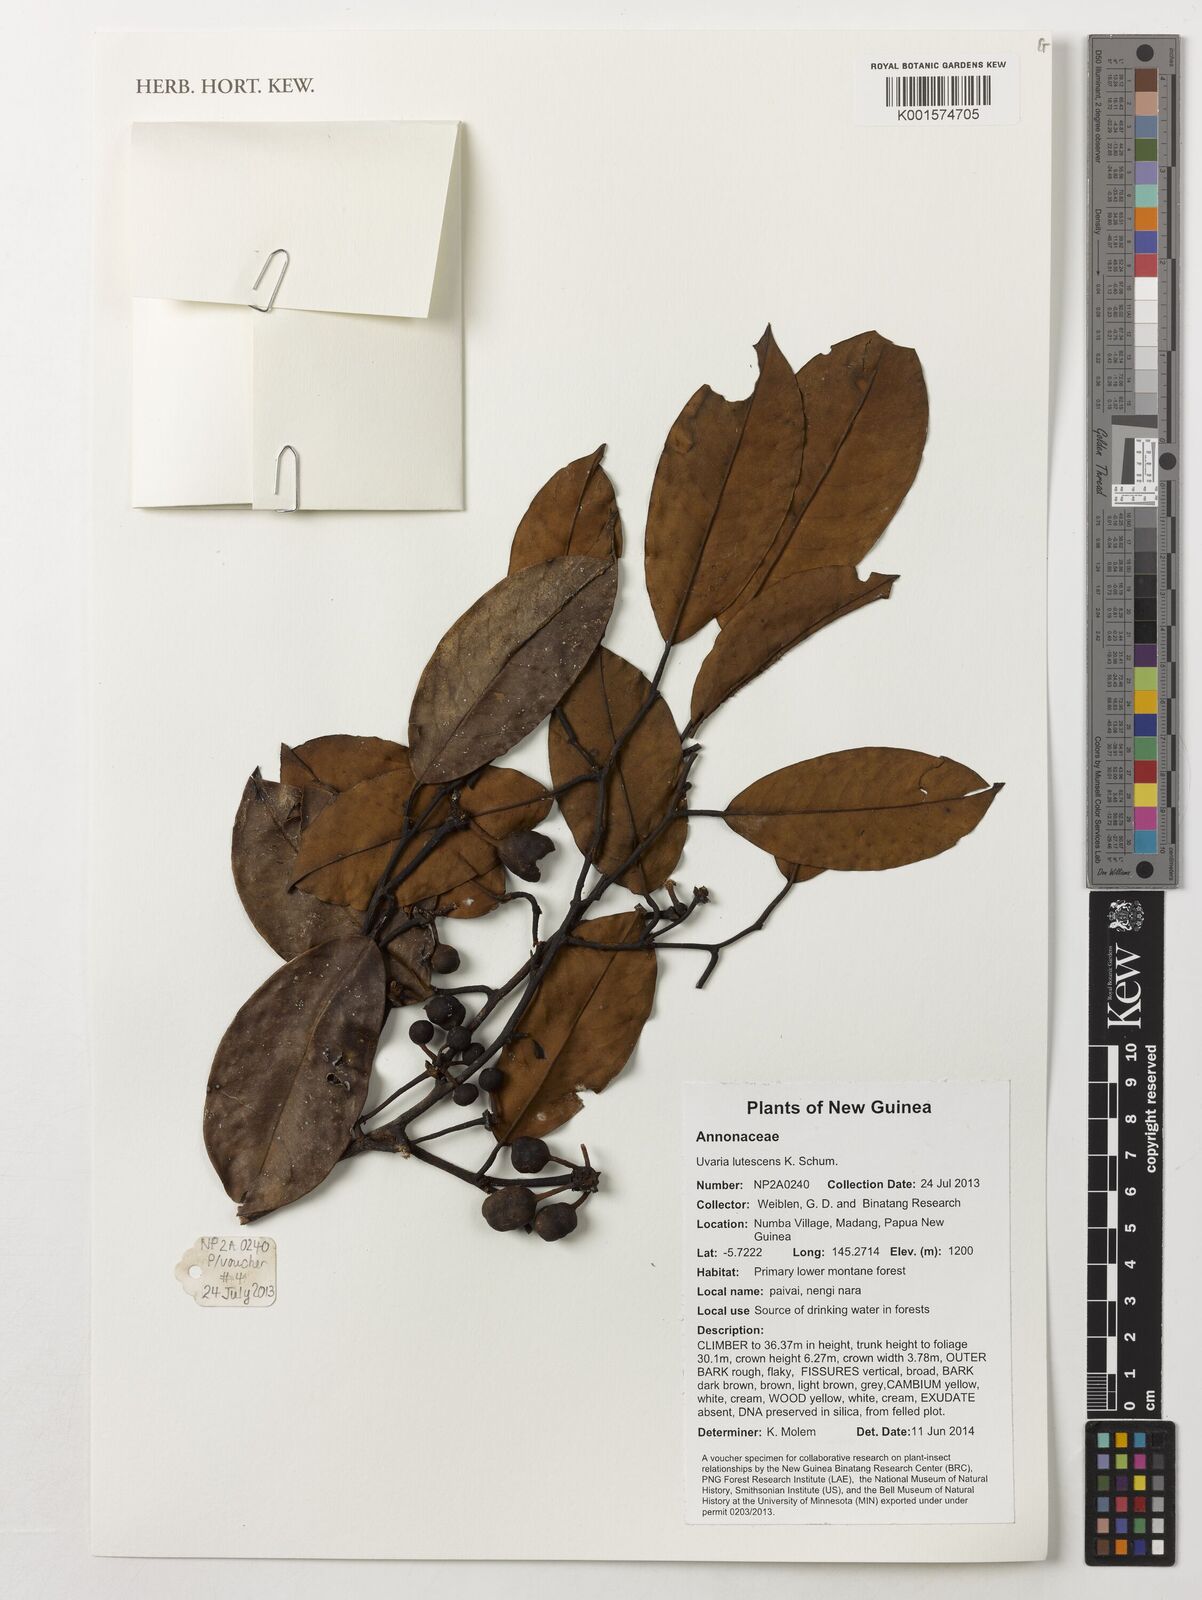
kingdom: Plantae
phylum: Tracheophyta
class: Magnoliopsida
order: Magnoliales
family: Annonaceae
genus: Melodorum
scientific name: Melodorum leichhardtii
